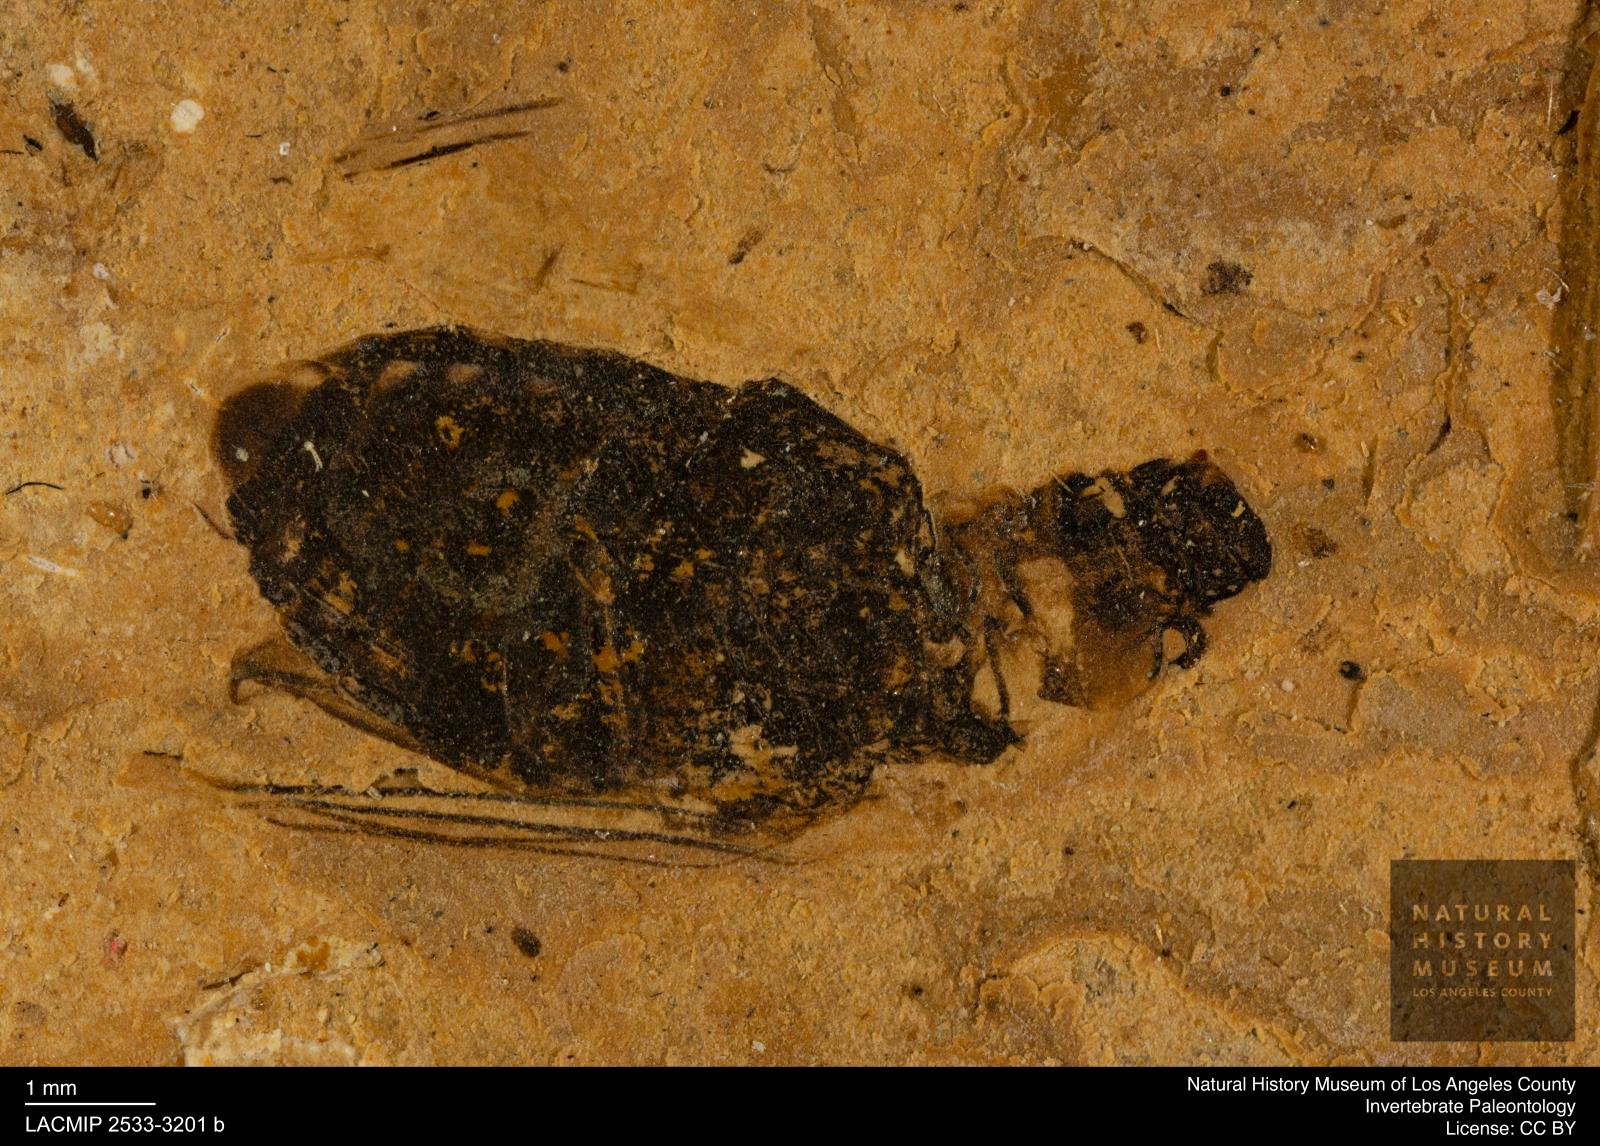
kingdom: Animalia
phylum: Arthropoda
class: Insecta
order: Coleoptera
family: Hydrophilidae
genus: Berosus
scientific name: Berosus morticinus
